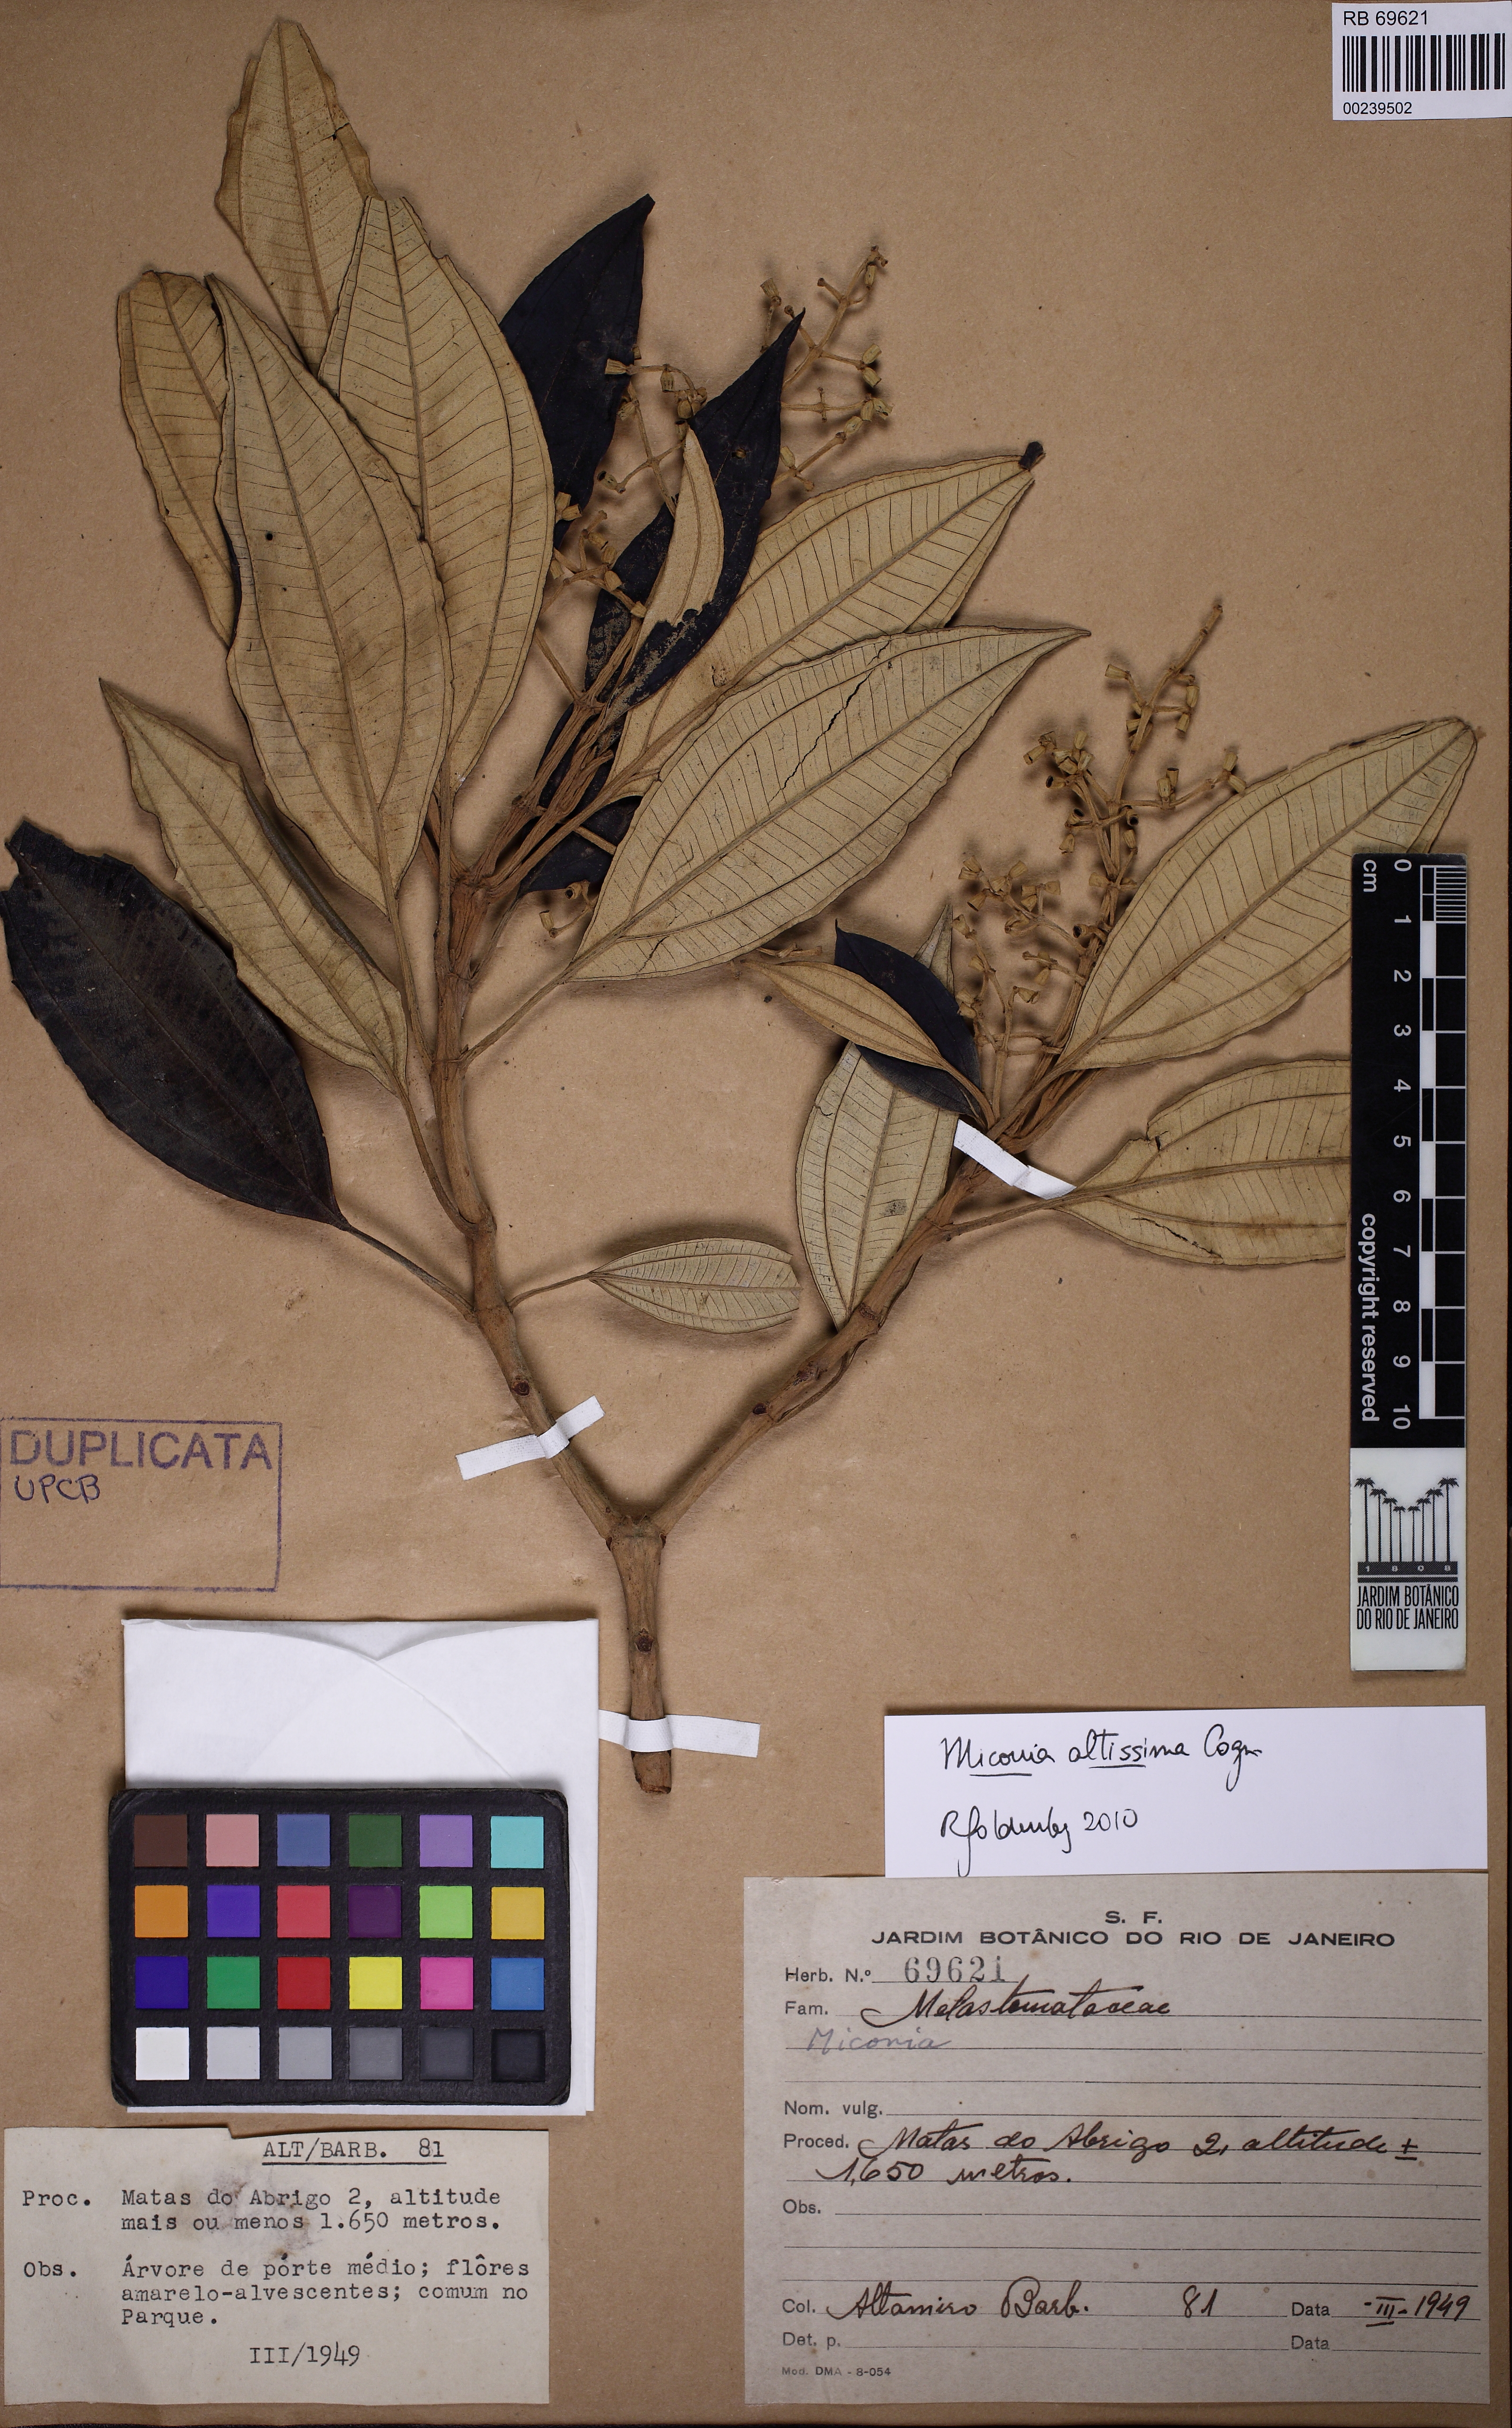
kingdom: Plantae
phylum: Tracheophyta
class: Magnoliopsida
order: Myrtales
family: Melastomataceae
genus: Miconia
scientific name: Miconia formosa
